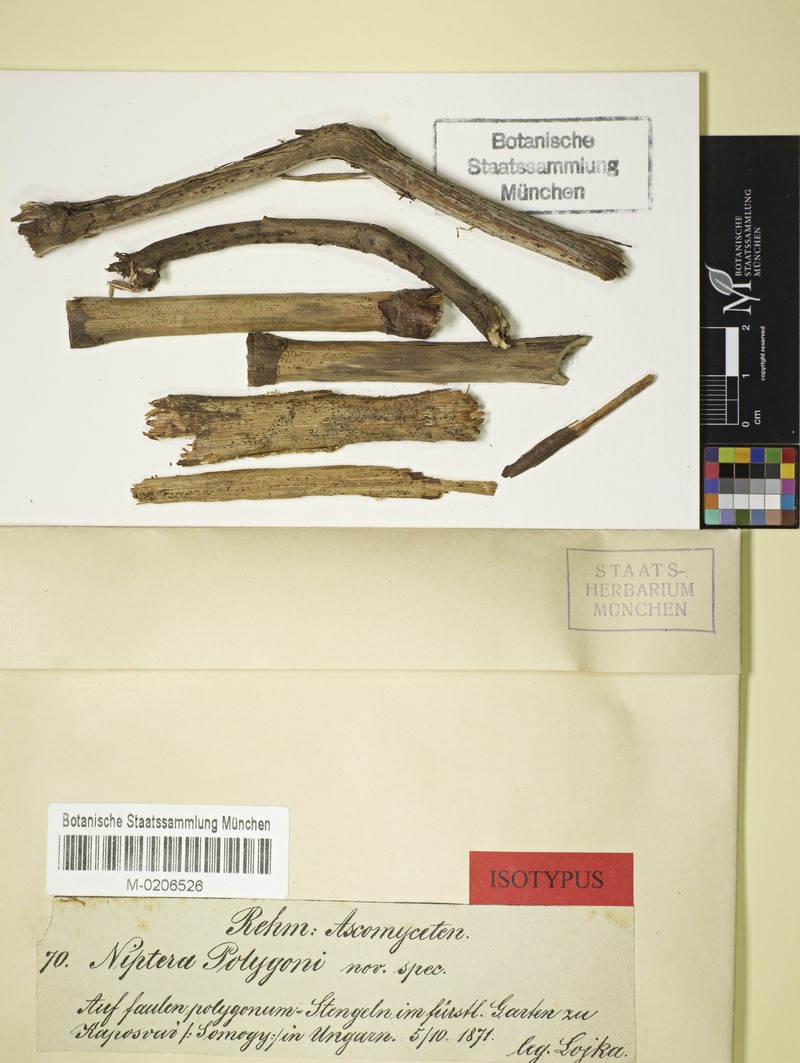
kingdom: Fungi
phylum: Ascomycota
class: Leotiomycetes
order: Helotiales
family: Mollisiaceae
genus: Mollisia
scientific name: Mollisia polygoni
